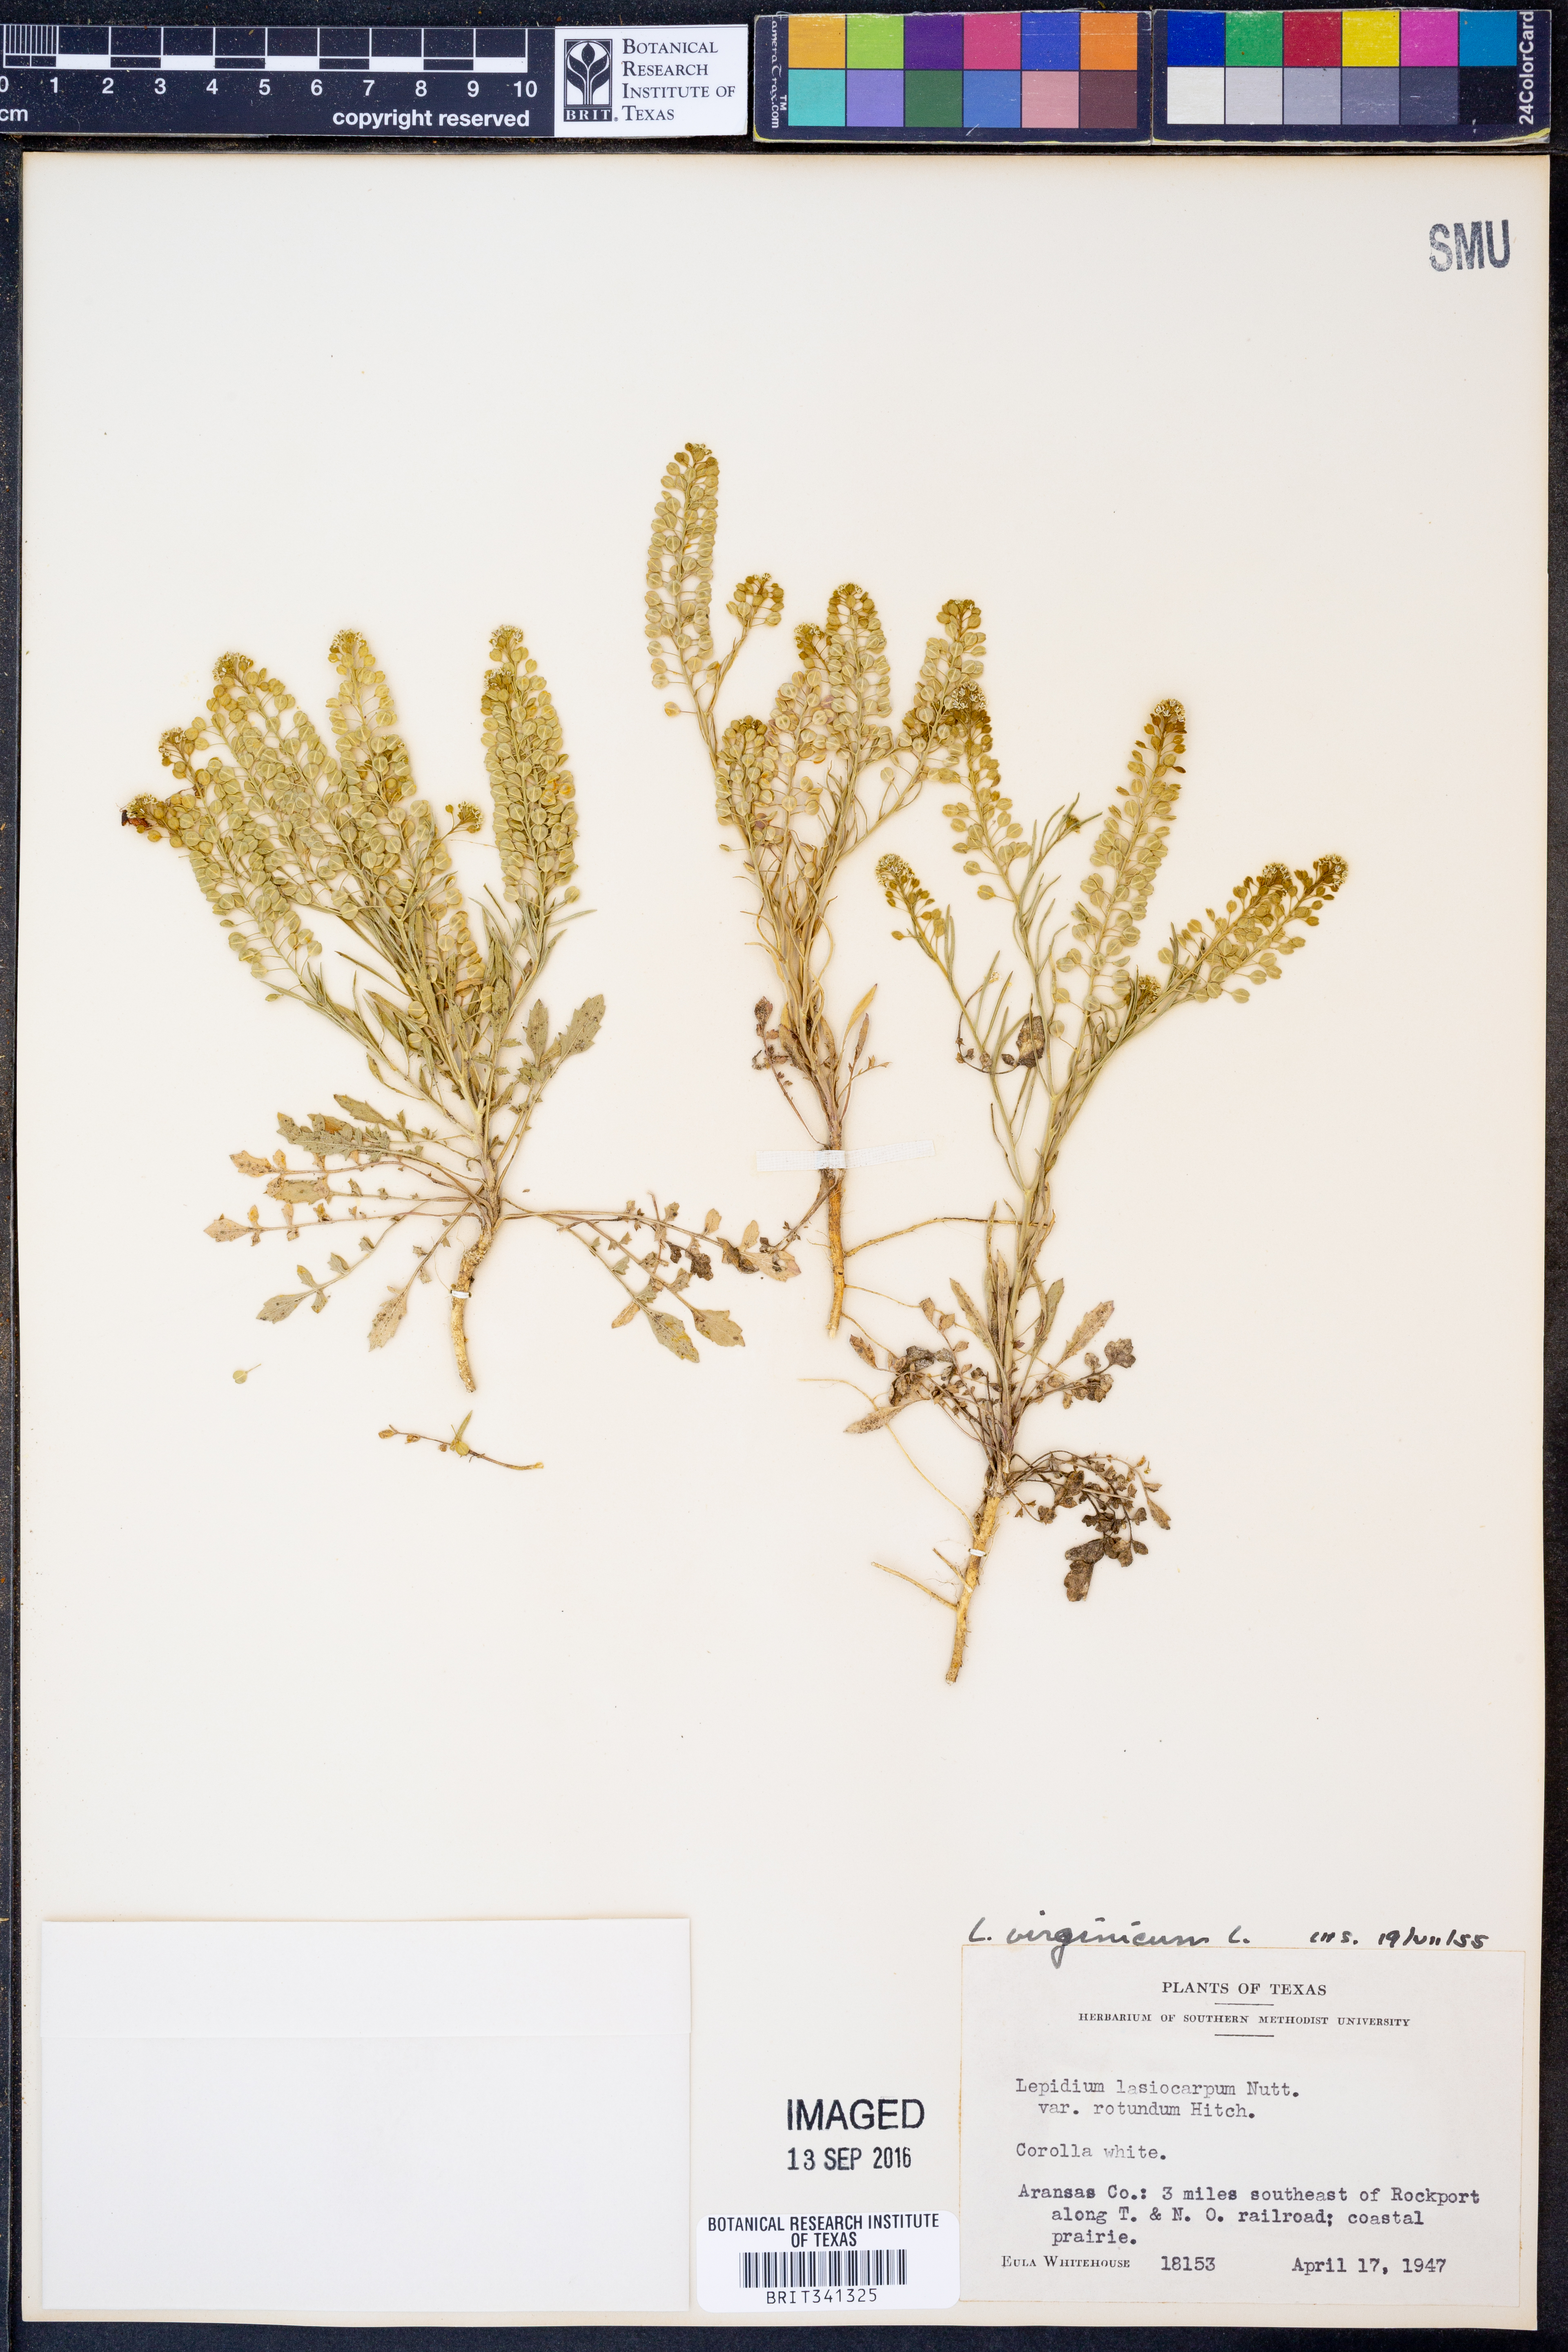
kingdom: Plantae
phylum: Tracheophyta
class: Magnoliopsida
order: Brassicales
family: Brassicaceae
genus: Lepidium
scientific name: Lepidium virginicum
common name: Least pepperwort
